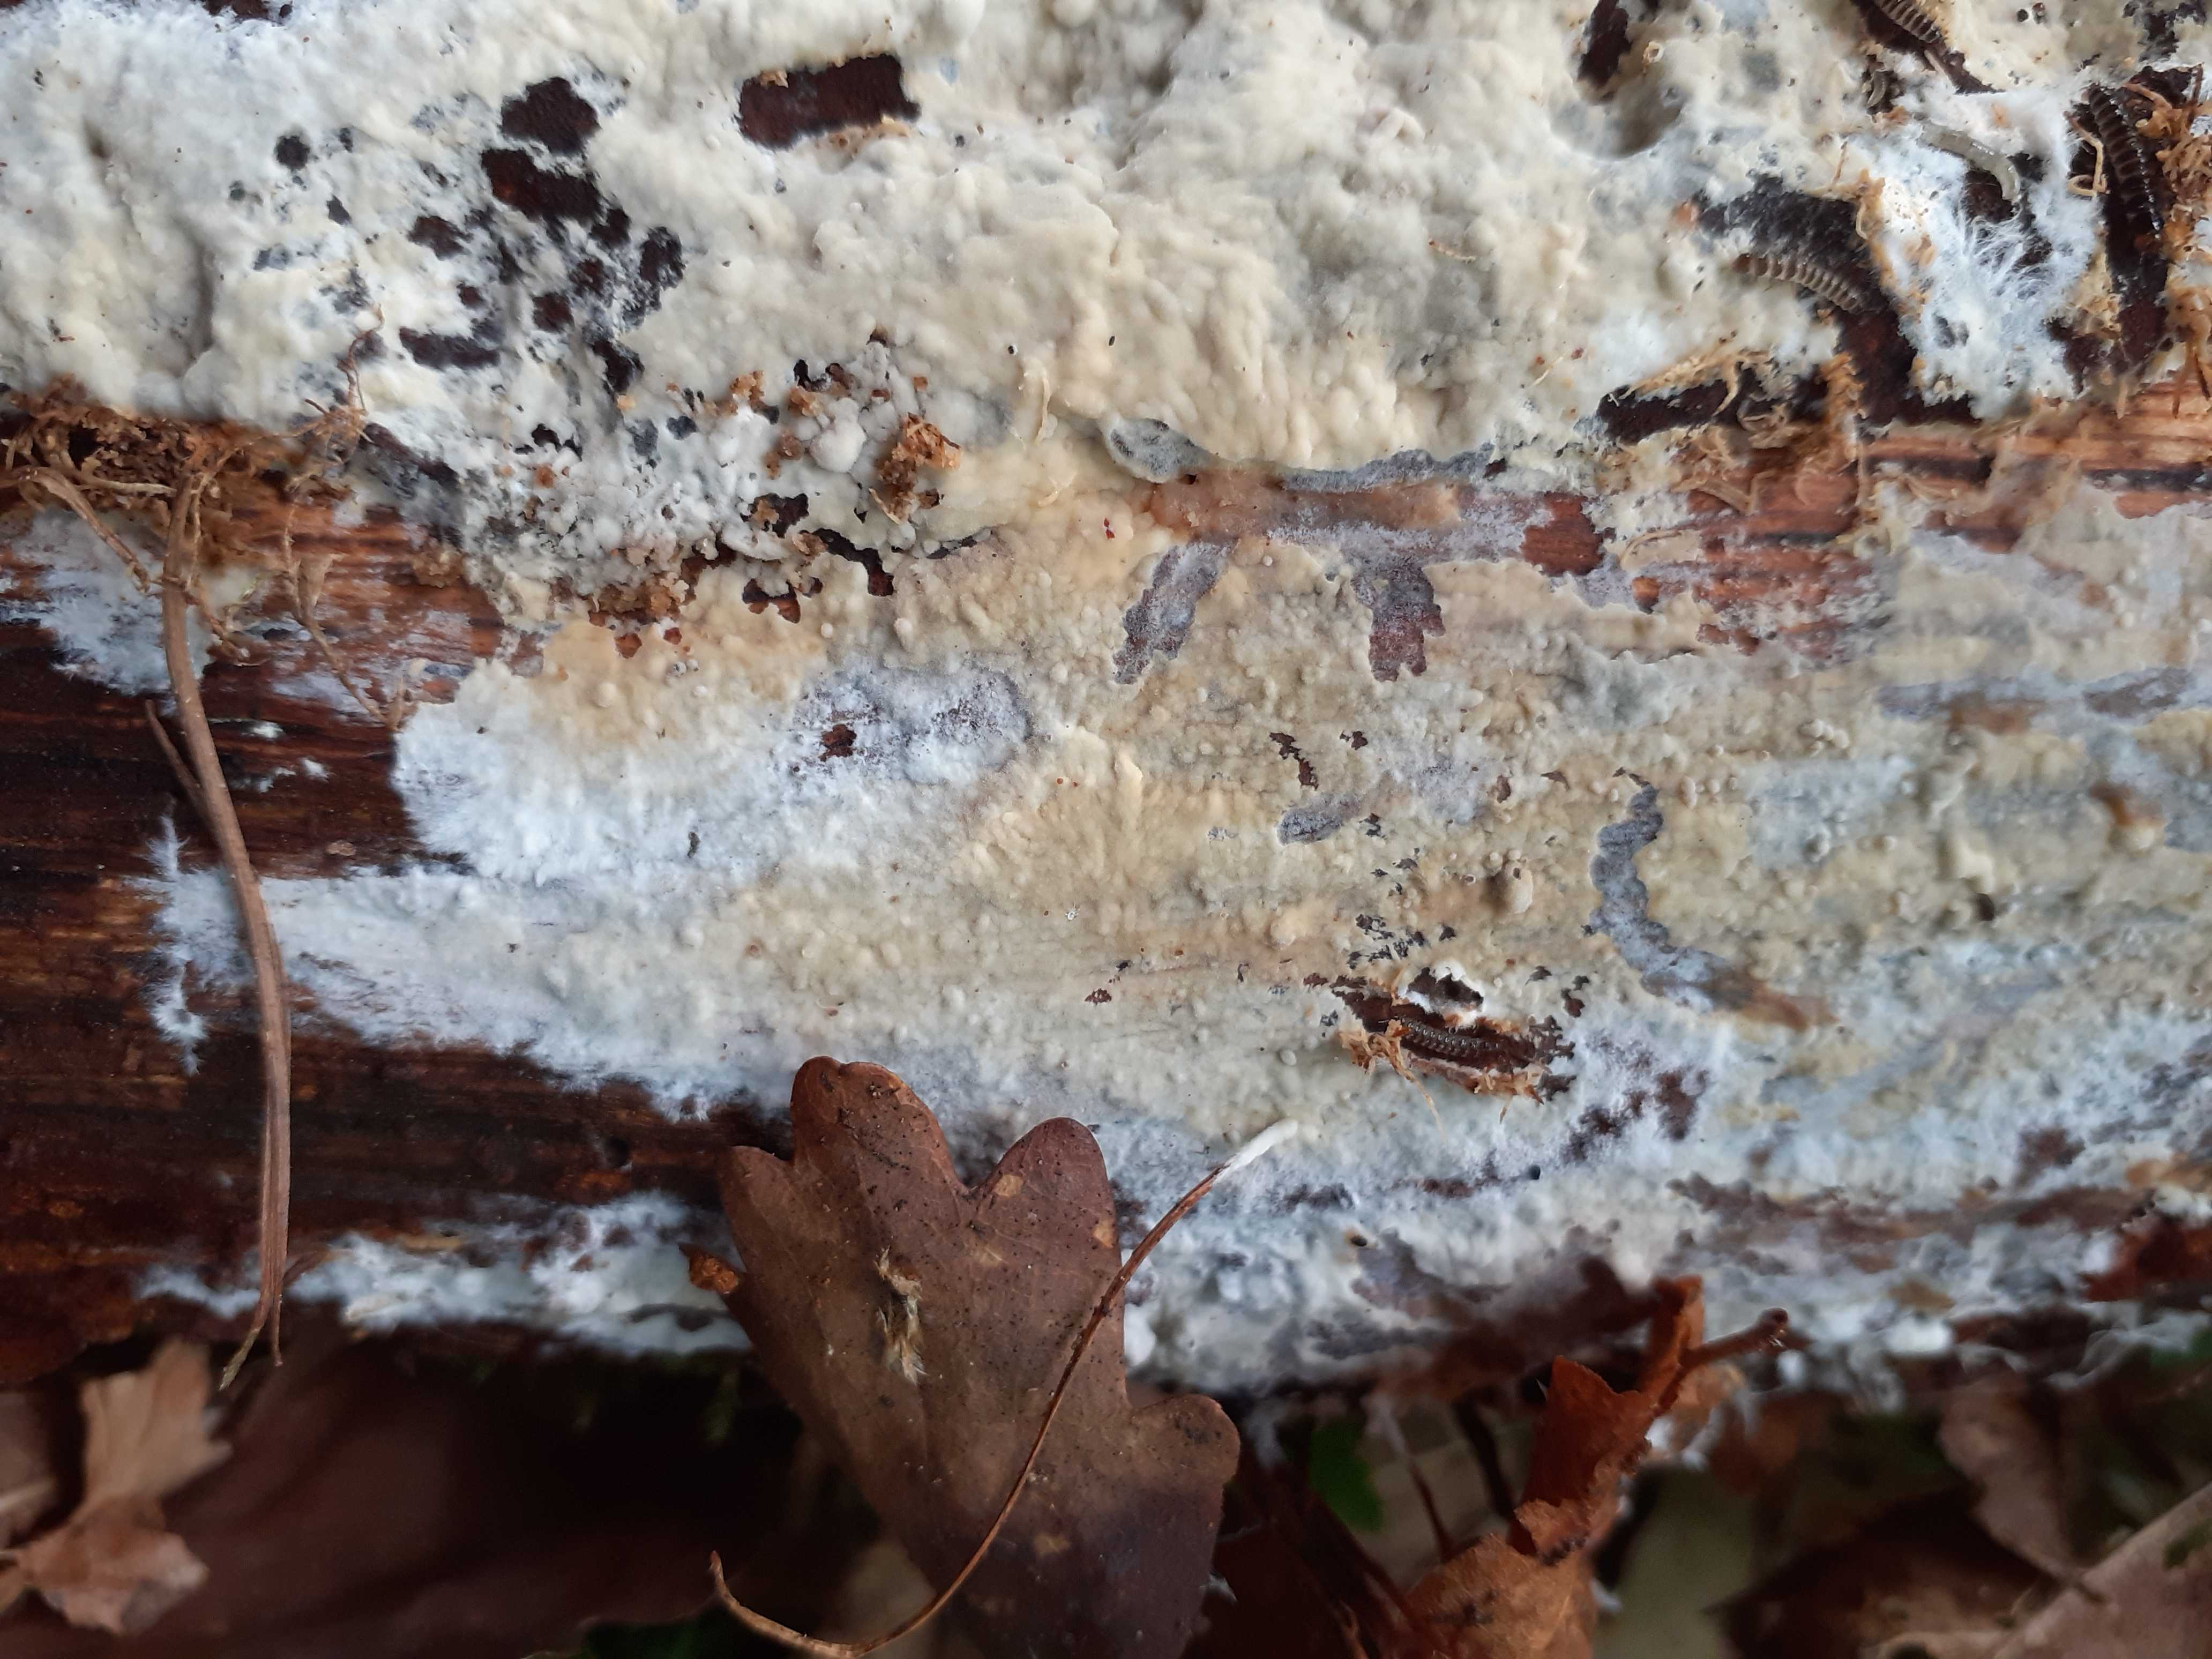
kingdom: Fungi
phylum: Basidiomycota
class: Agaricomycetes
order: Hymenochaetales
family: Rickenellaceae
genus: Peniophorella
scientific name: Peniophorella pubera
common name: dunet kalkskind
